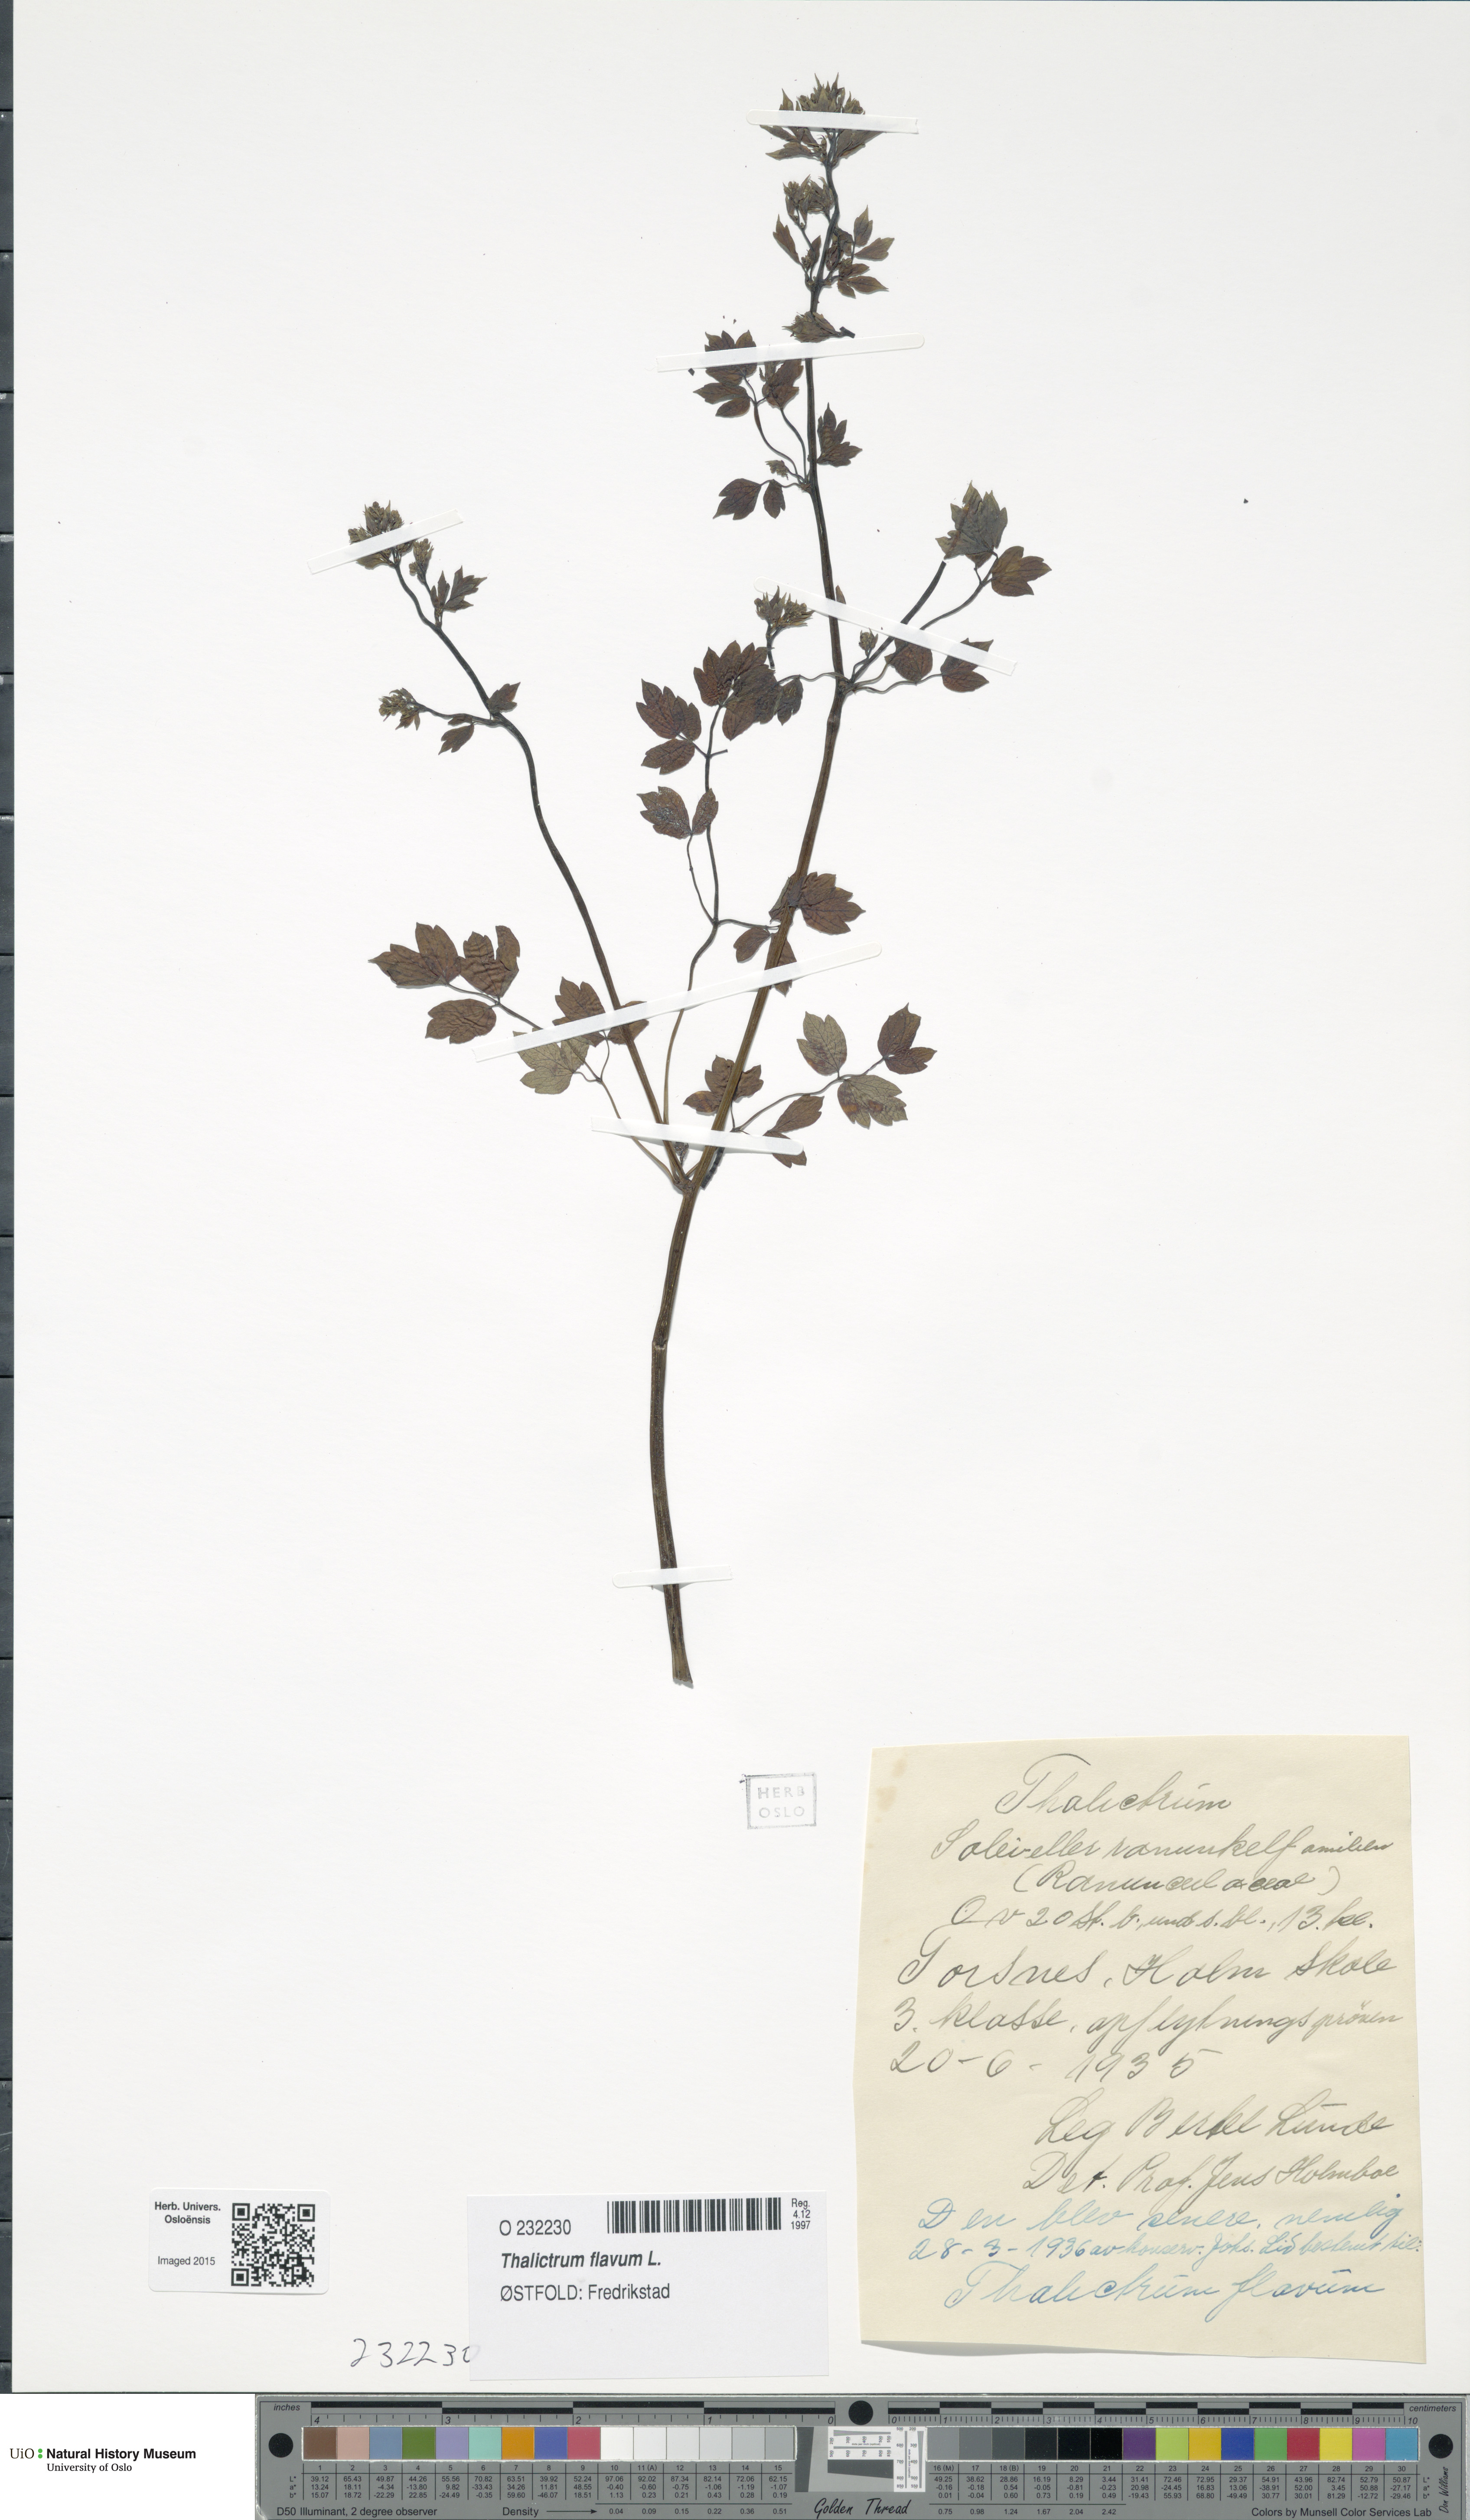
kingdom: Plantae
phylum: Tracheophyta
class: Magnoliopsida
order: Ranunculales
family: Ranunculaceae
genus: Thalictrum
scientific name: Thalictrum flavum
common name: Common meadow-rue
